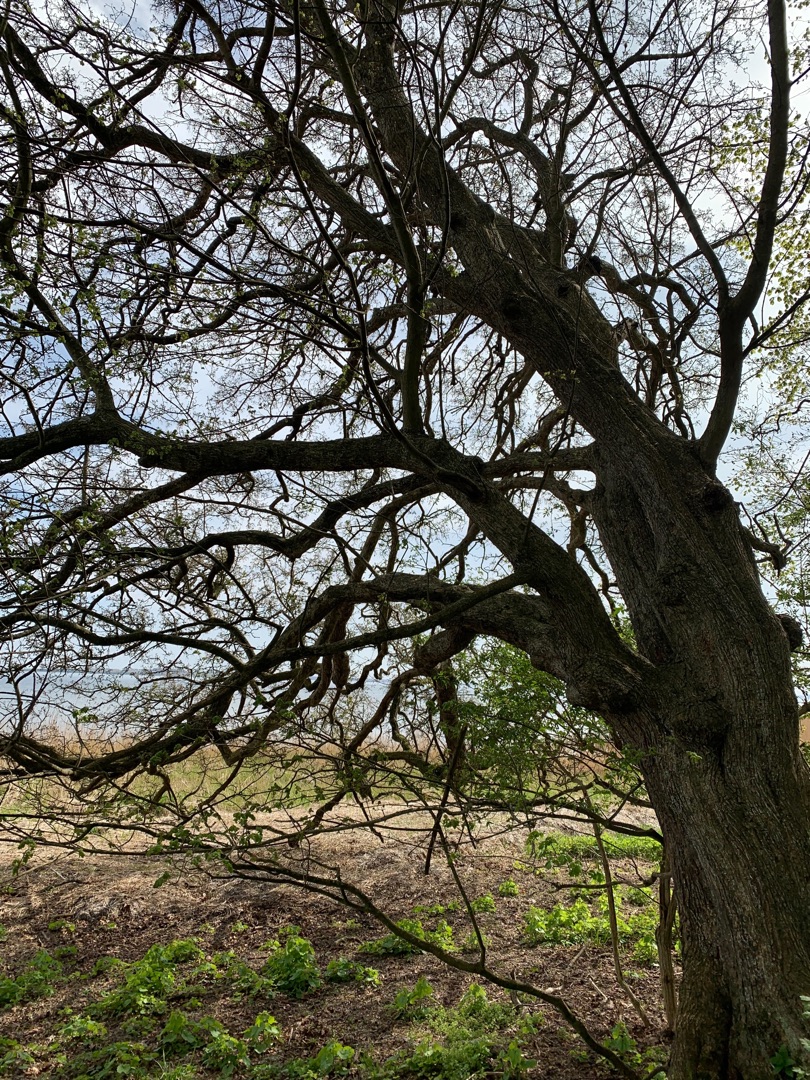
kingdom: Plantae
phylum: Tracheophyta
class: Magnoliopsida
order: Sapindales
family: Sapindaceae
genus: Acer
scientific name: Acer campestre
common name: Navr
